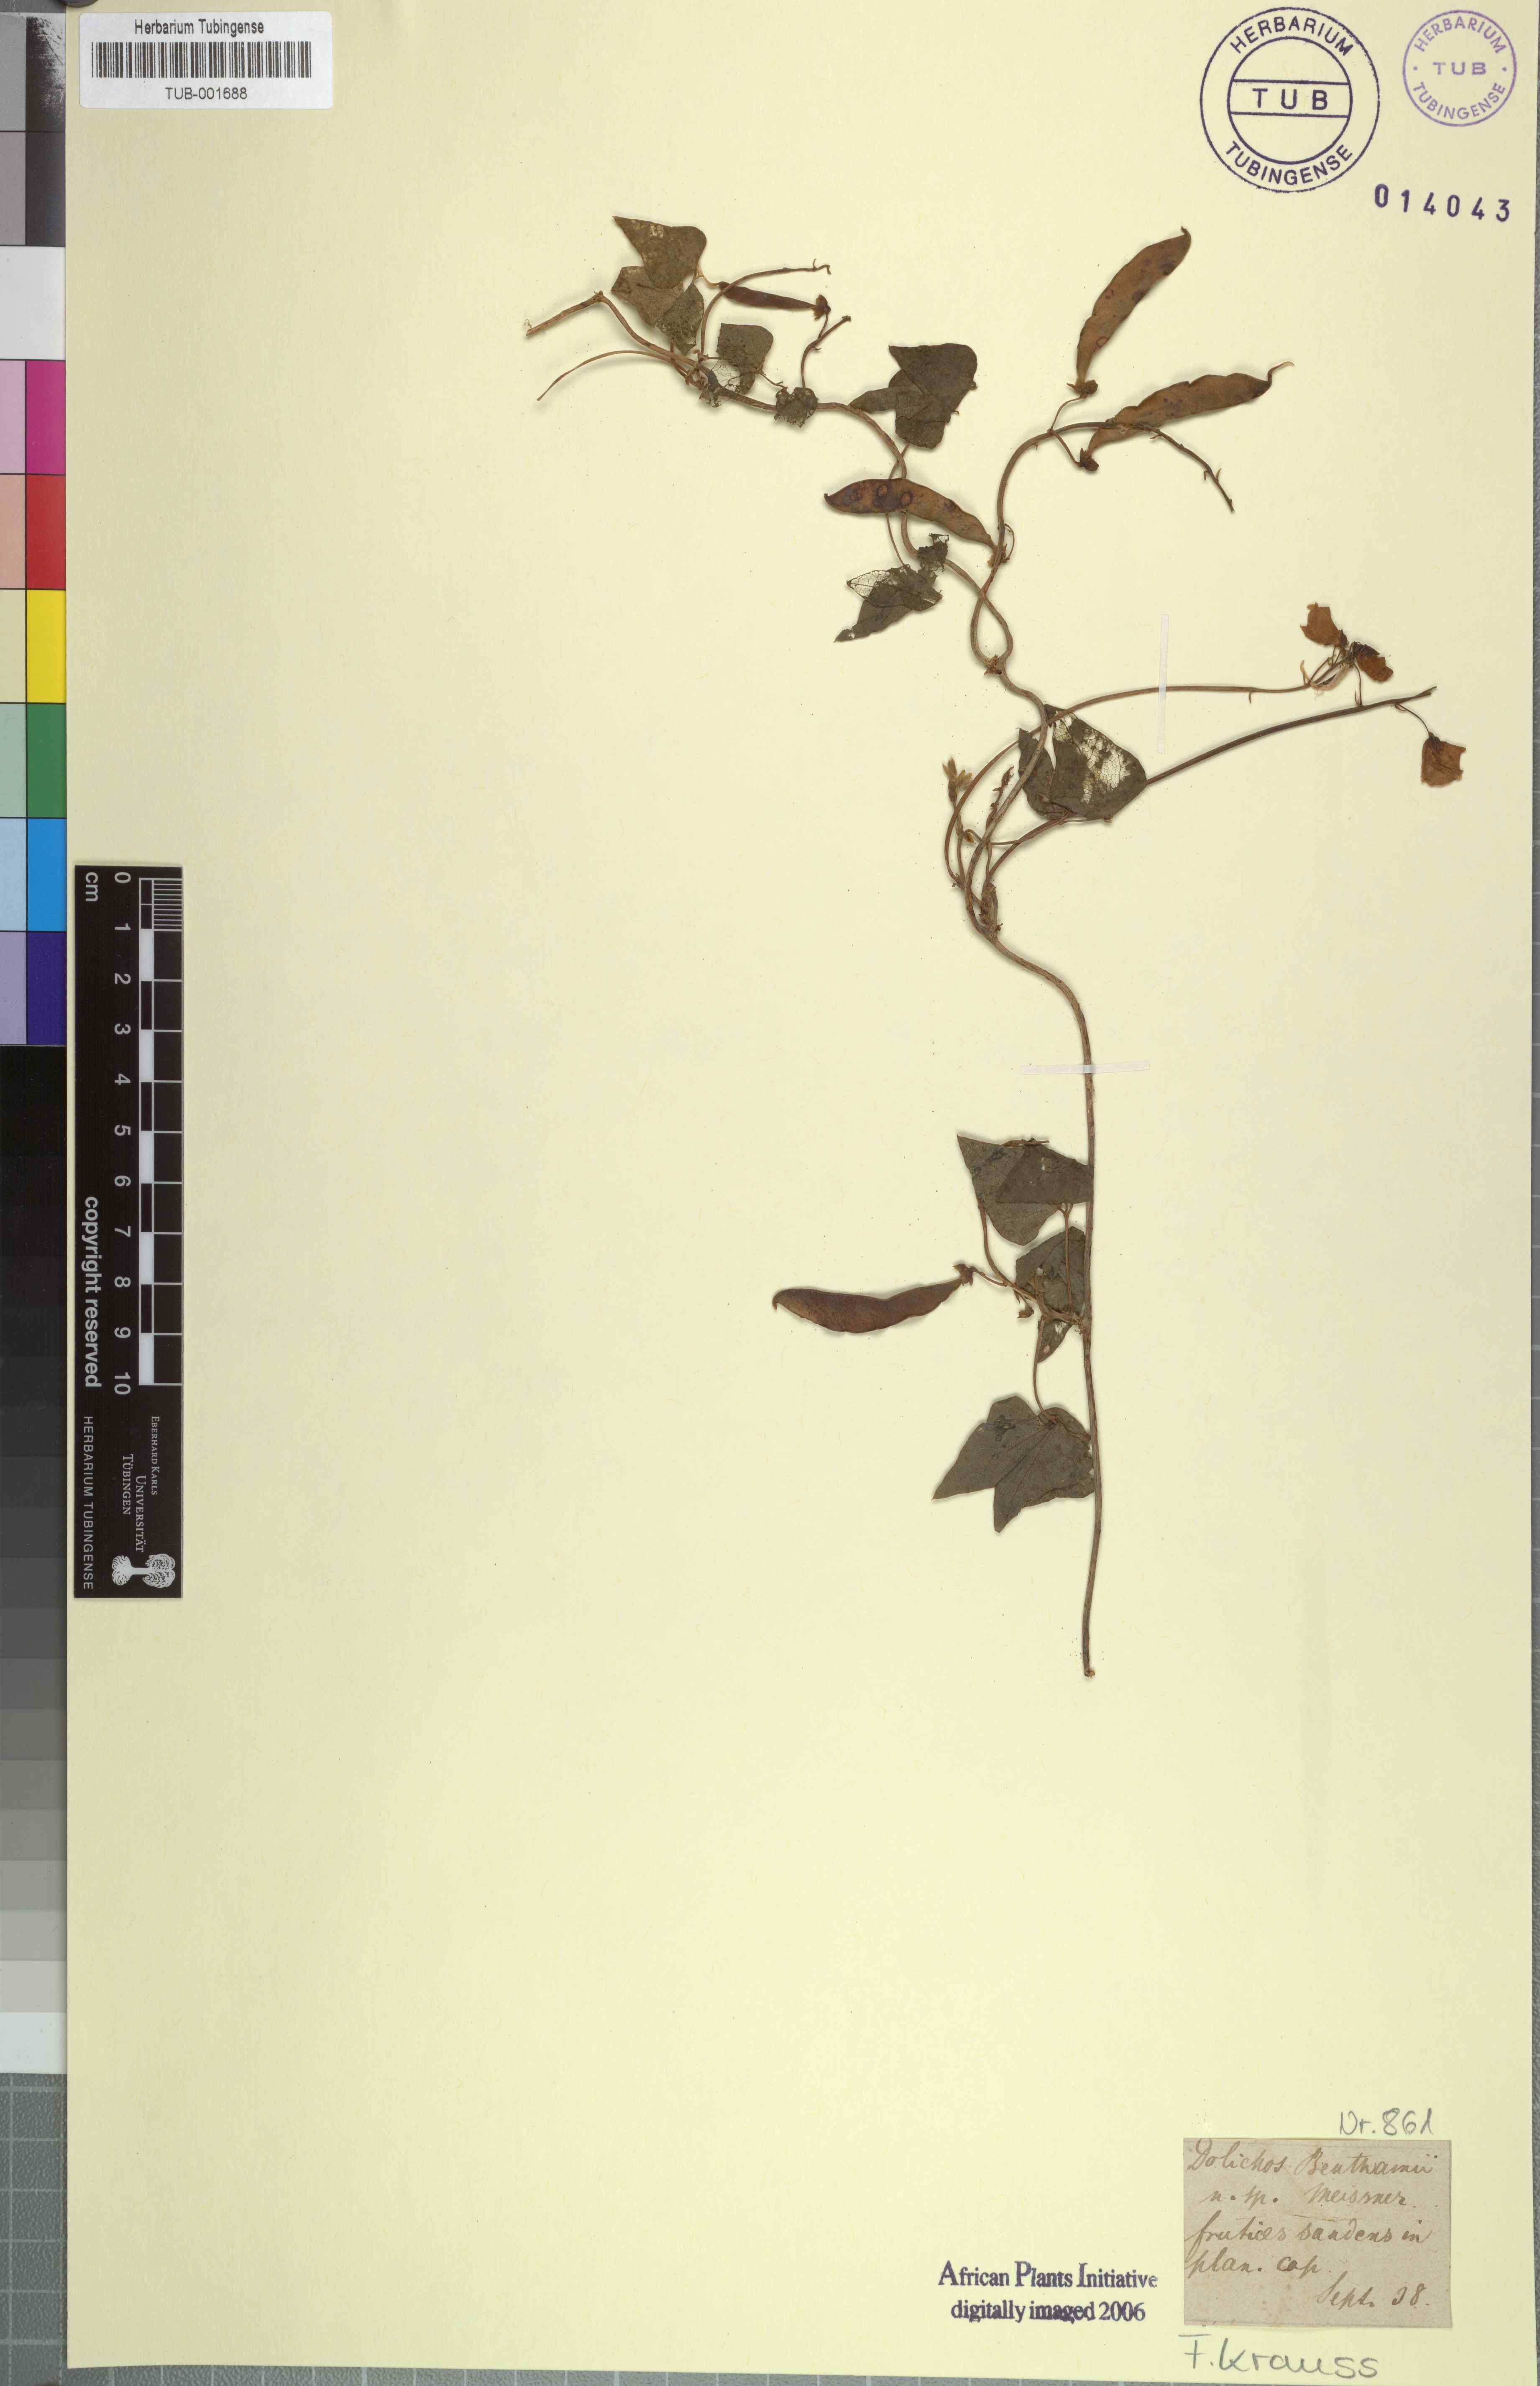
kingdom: Plantae
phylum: Tracheophyta
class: Magnoliopsida
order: Fabales
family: Fabaceae
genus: Dipogon
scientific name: Dipogon lignosus
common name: Okie bean
